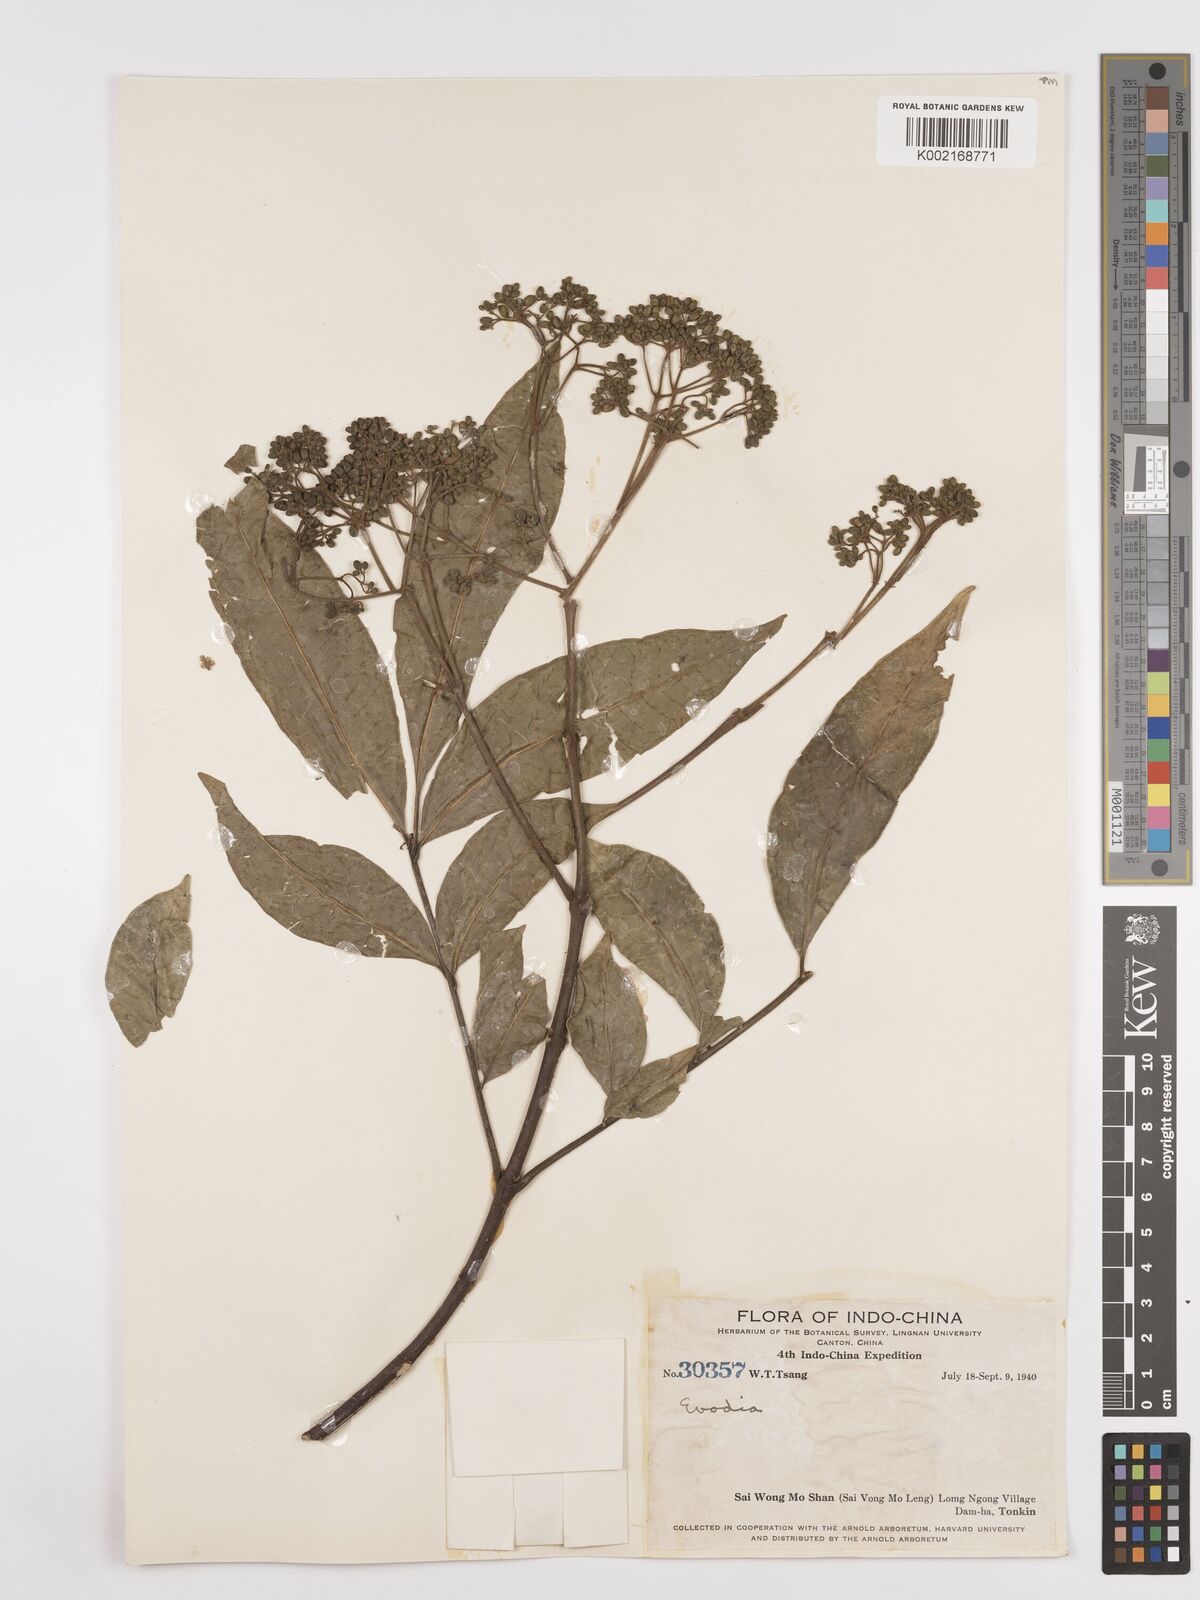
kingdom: Plantae
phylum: Tracheophyta
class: Magnoliopsida
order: Sapindales
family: Rutaceae
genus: Euodia
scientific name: Euodia
